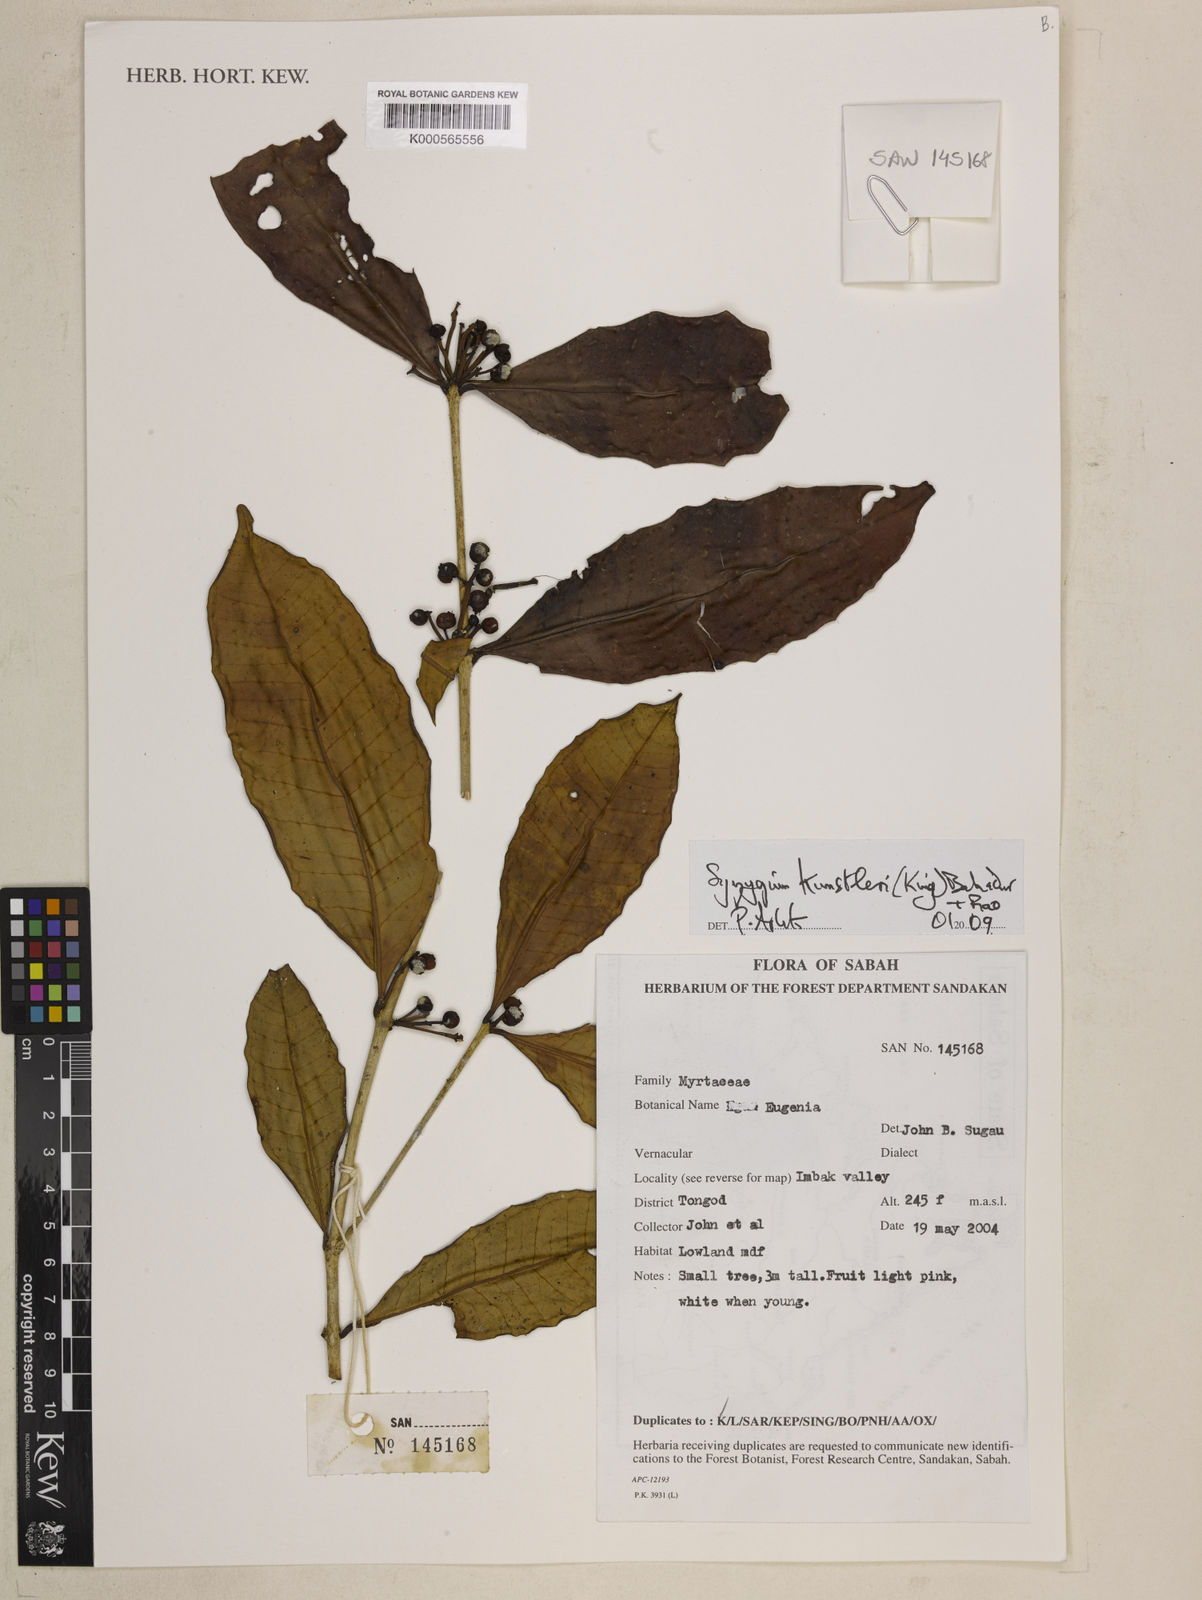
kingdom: Plantae
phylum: Tracheophyta
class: Magnoliopsida
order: Myrtales
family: Myrtaceae
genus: Syzygium
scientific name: Syzygium kunstleri
